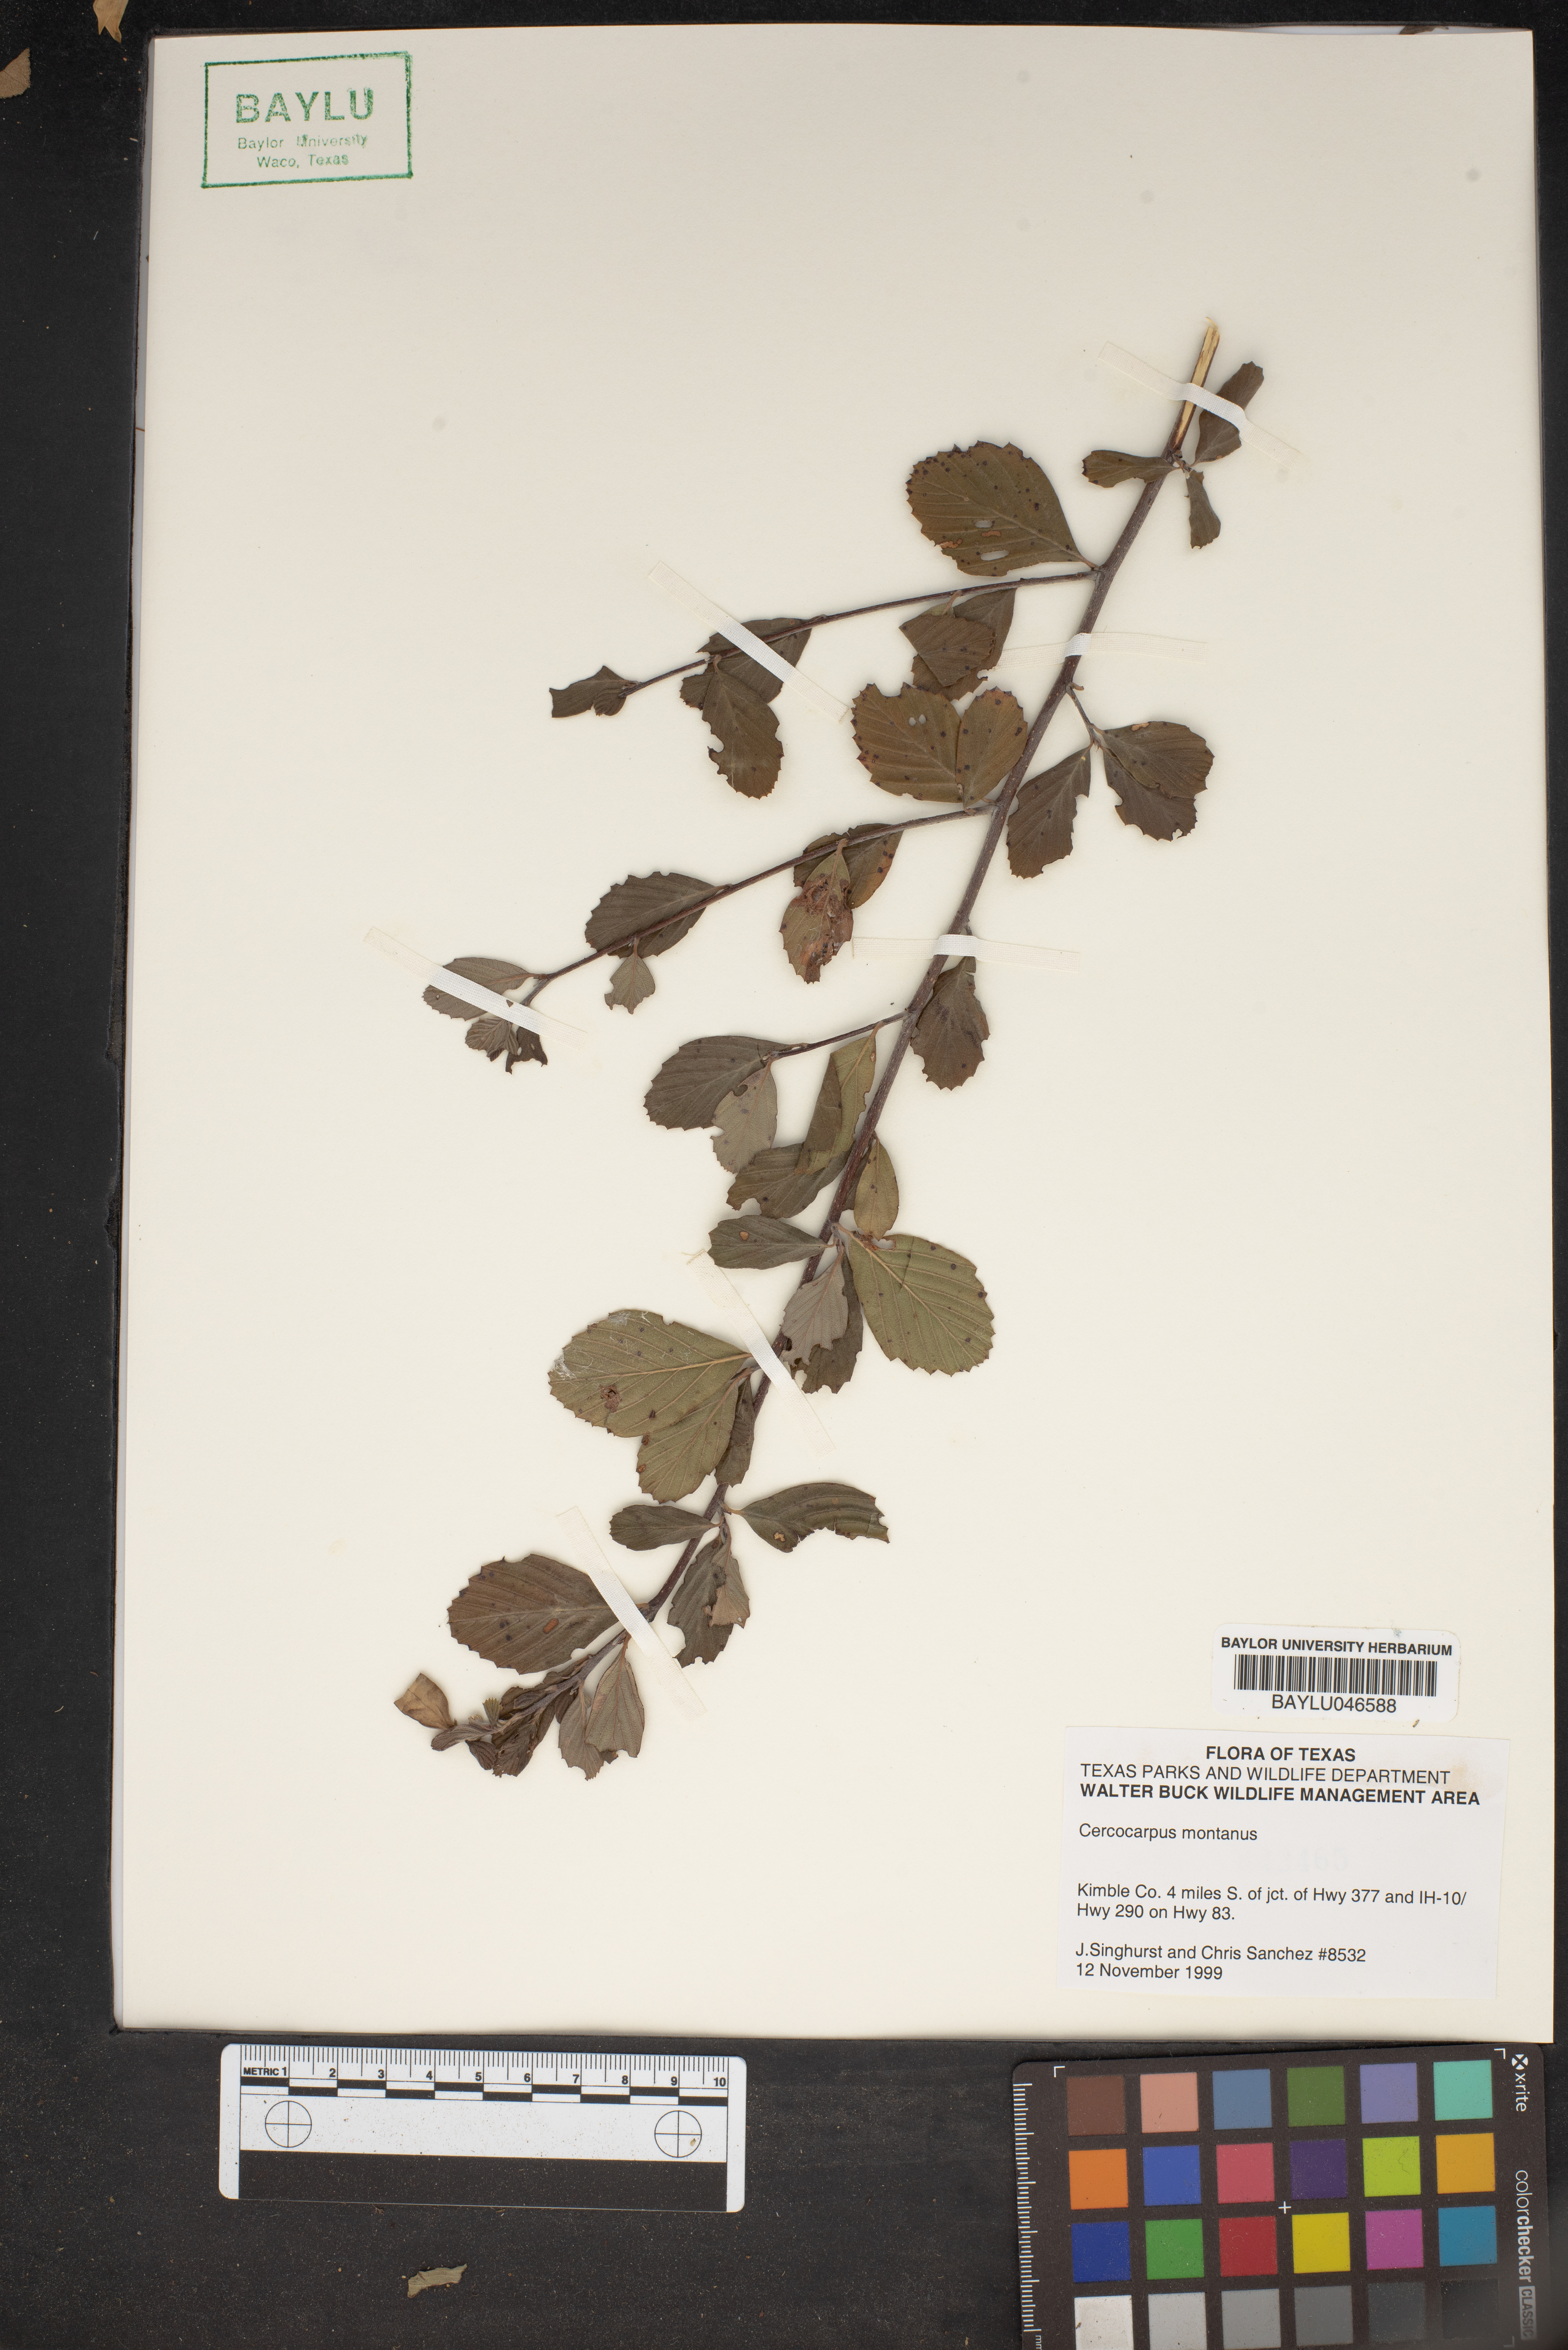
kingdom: Plantae
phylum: Tracheophyta
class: Magnoliopsida
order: Rosales
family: Rosaceae
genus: Cercocarpus
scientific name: Cercocarpus montanus
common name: Alder-leaf cercocarpus
